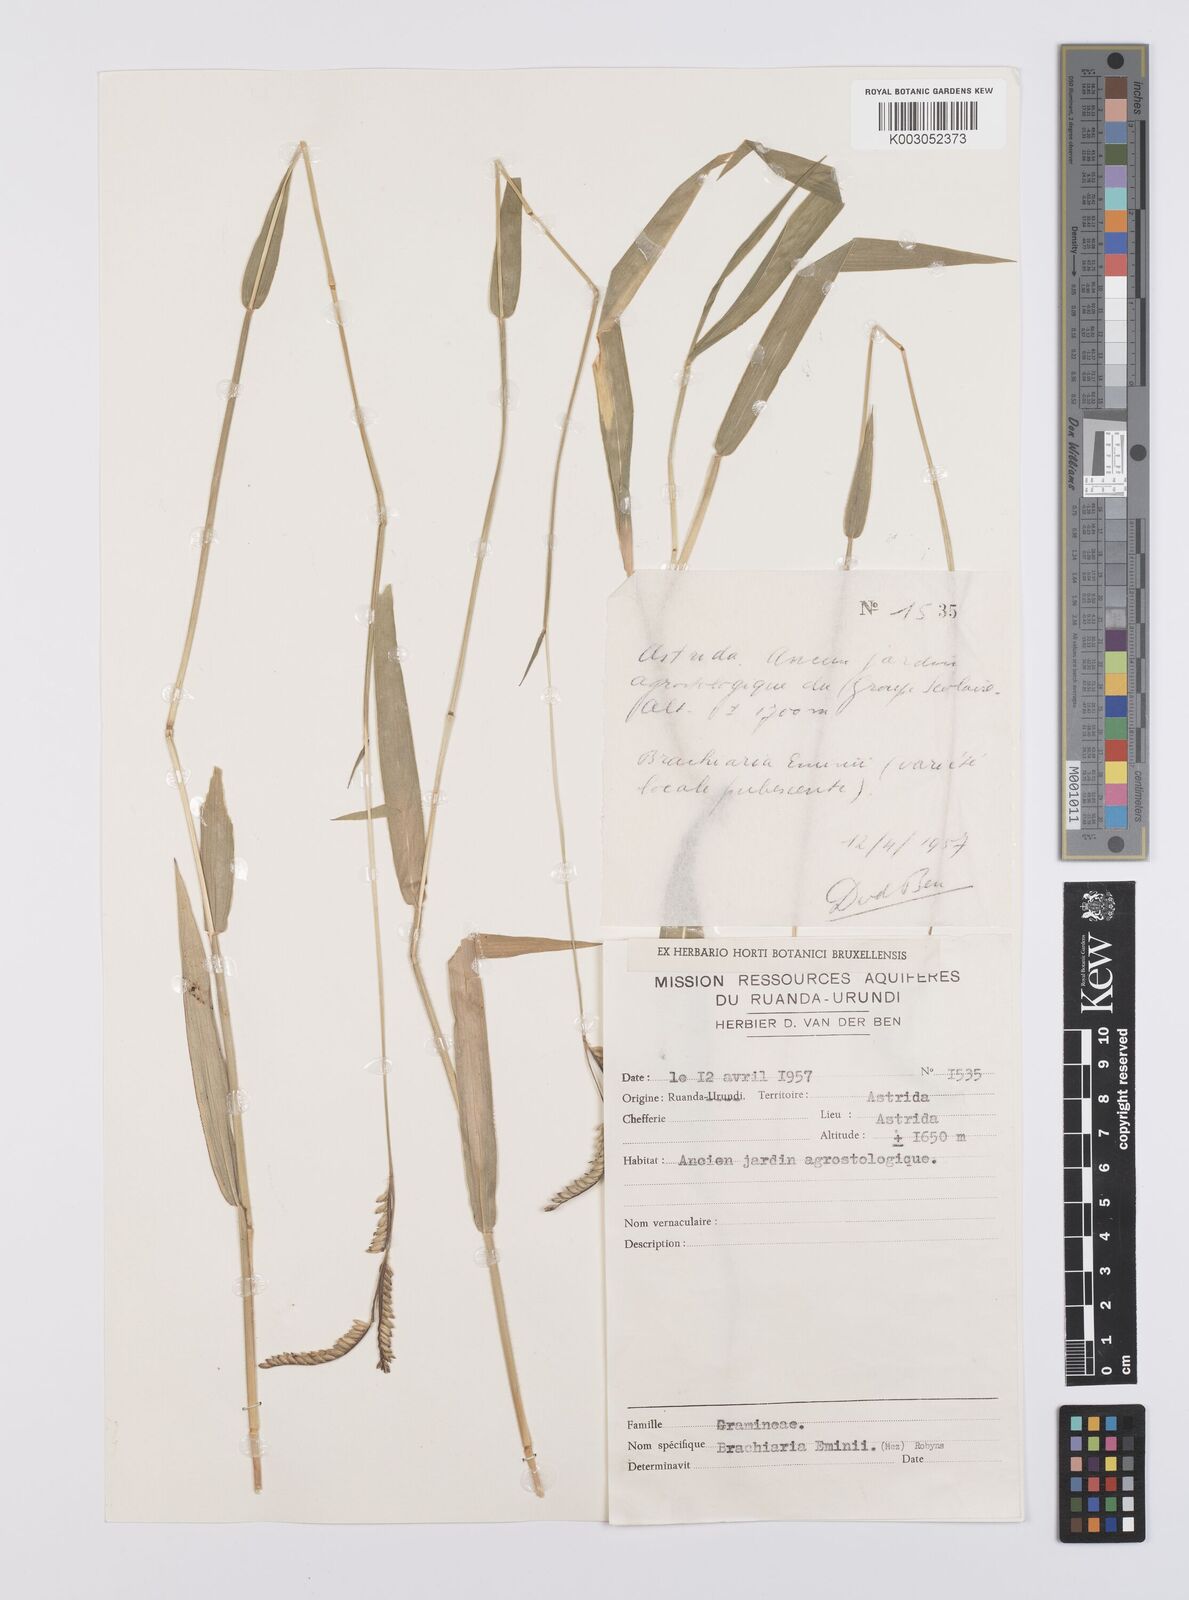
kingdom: Plantae
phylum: Tracheophyta
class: Liliopsida
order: Poales
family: Poaceae
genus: Urochloa
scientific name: Urochloa eminii
